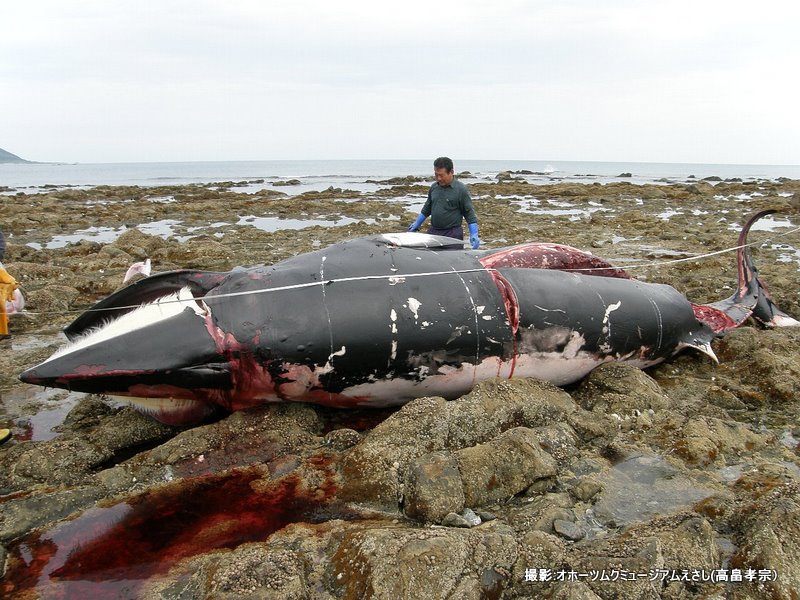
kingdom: Animalia
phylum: Chordata
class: Mammalia
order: Cetacea
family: Balaenopteridae
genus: Balaenoptera
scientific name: Balaenoptera acutorostrata
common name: Minke whale
